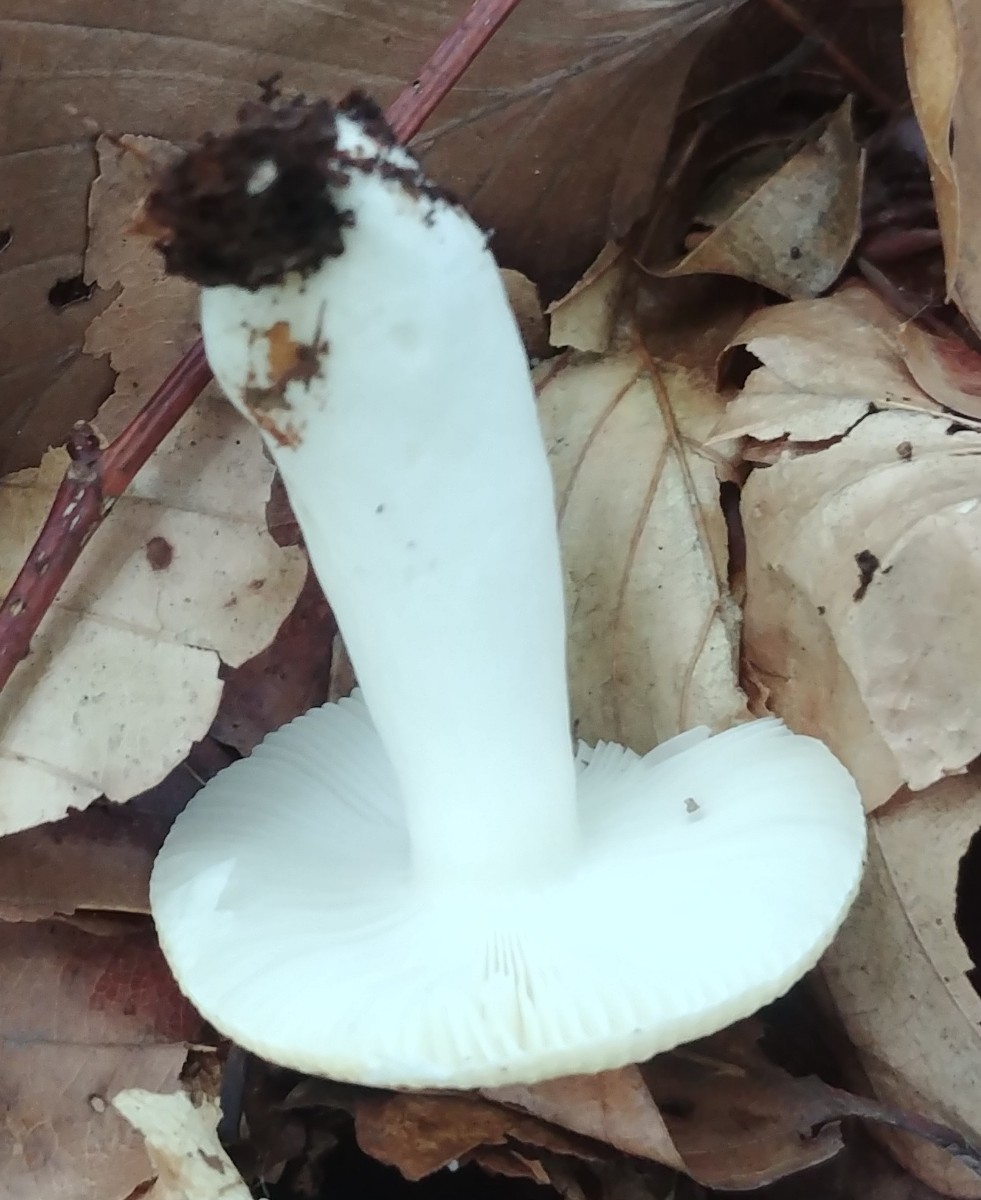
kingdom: Fungi
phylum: Basidiomycota
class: Agaricomycetes
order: Russulales
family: Russulaceae
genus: Russula
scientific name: Russula solaris
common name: sol-skørhat
